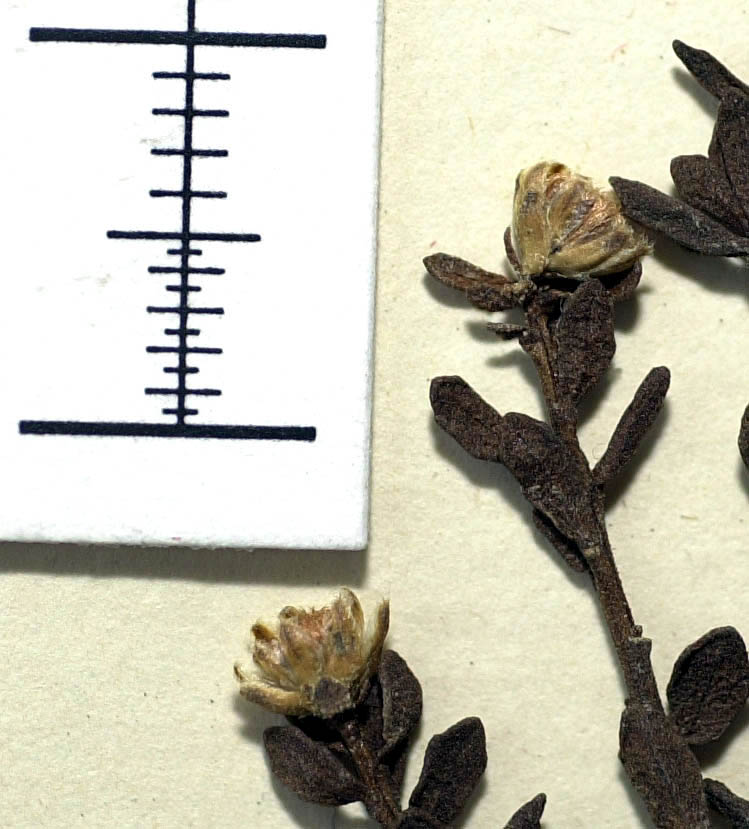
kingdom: Plantae
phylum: Tracheophyta
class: Magnoliopsida
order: Asterales
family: Asteraceae
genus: Baccharis
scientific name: Baccharis lycioides
